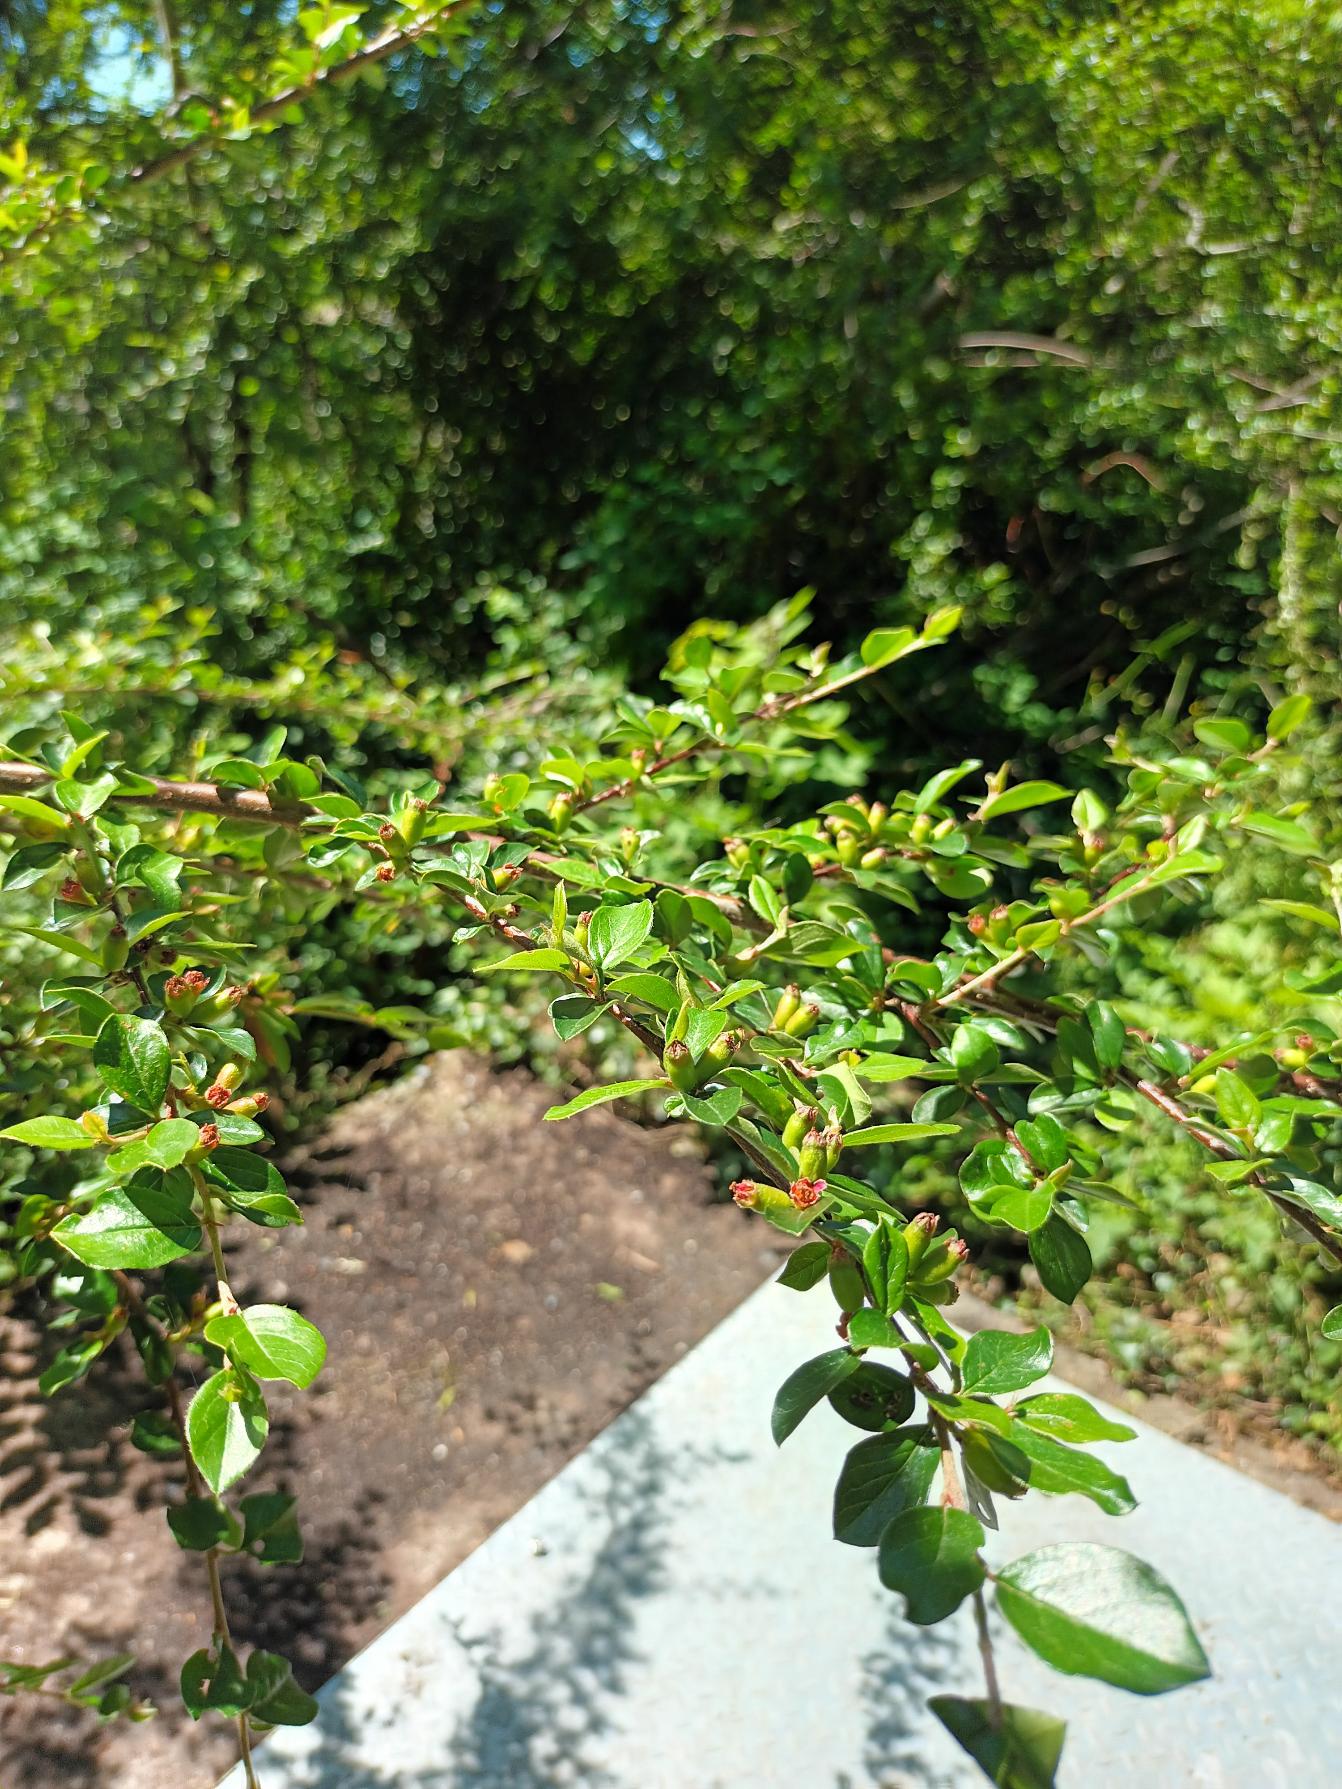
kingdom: Plantae
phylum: Tracheophyta
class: Magnoliopsida
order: Rosales
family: Rosaceae
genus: Cotoneaster
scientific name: Cotoneaster divaricatus
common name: Vifte-dværgmispel
